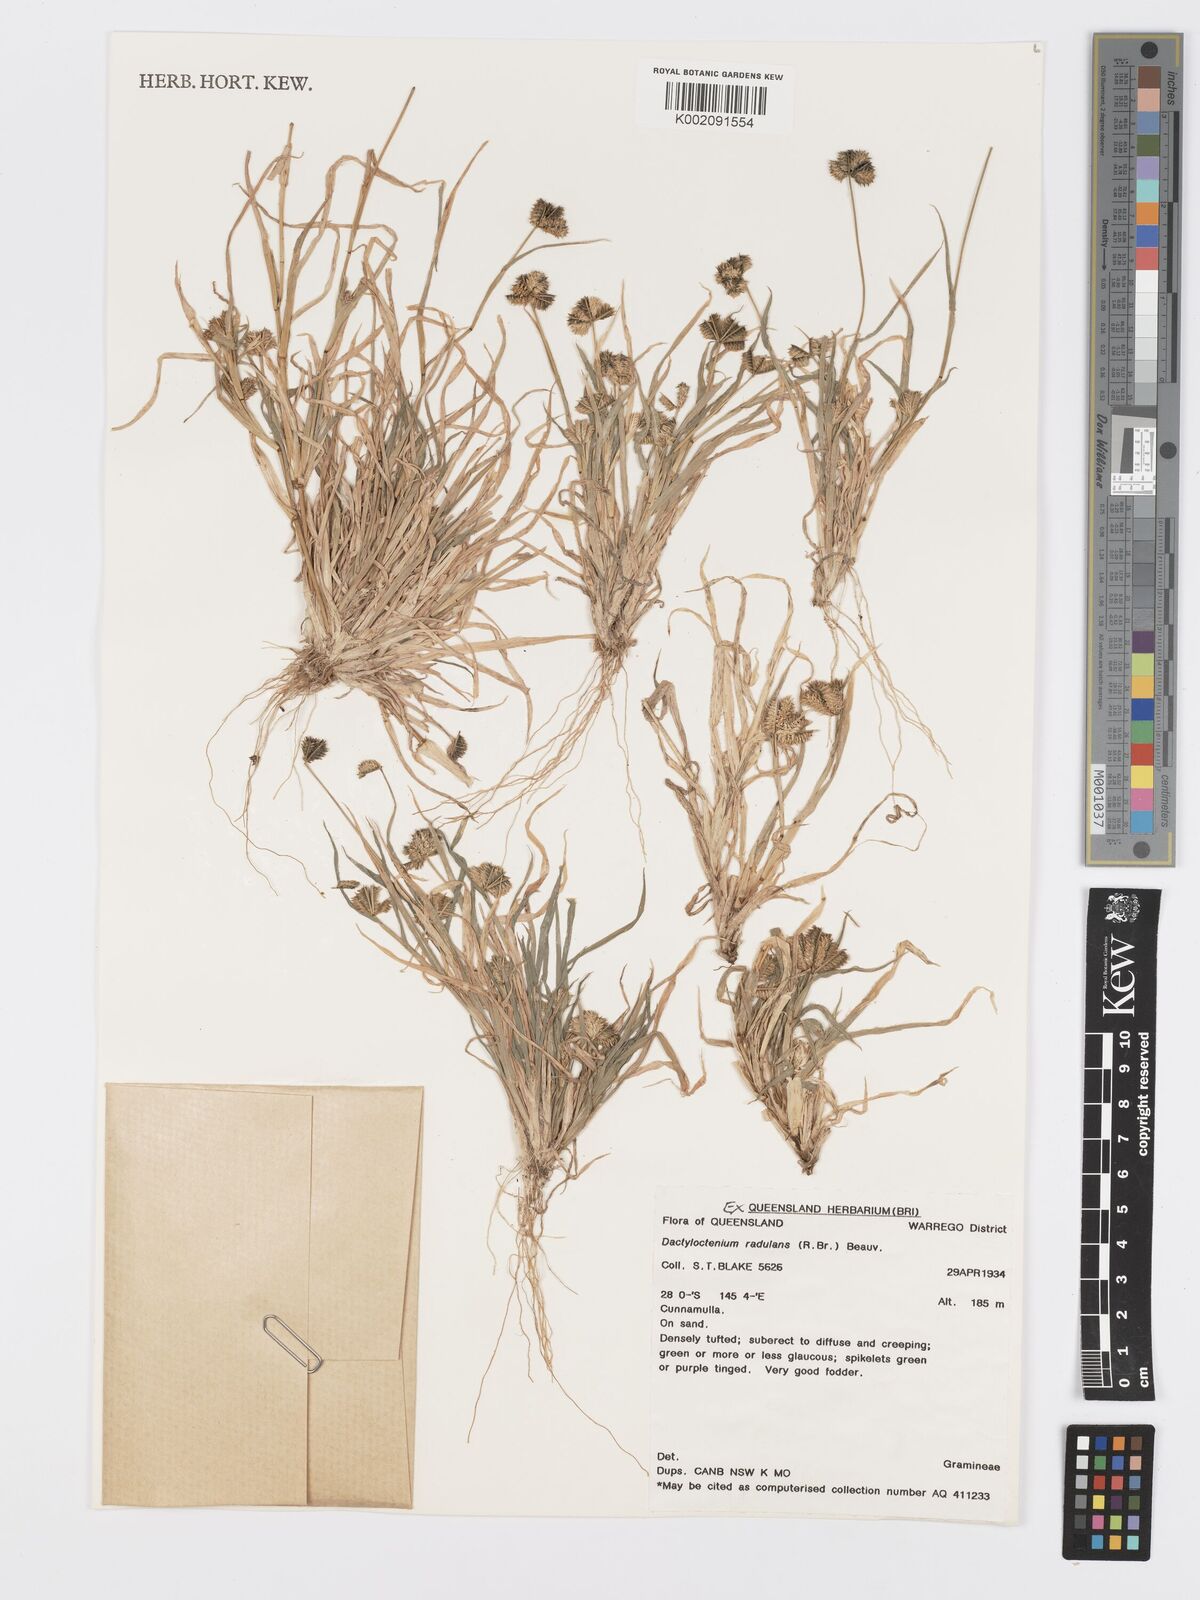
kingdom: Plantae
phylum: Tracheophyta
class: Liliopsida
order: Poales
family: Poaceae
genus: Dactyloctenium
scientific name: Dactyloctenium radulans
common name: Button-grass
